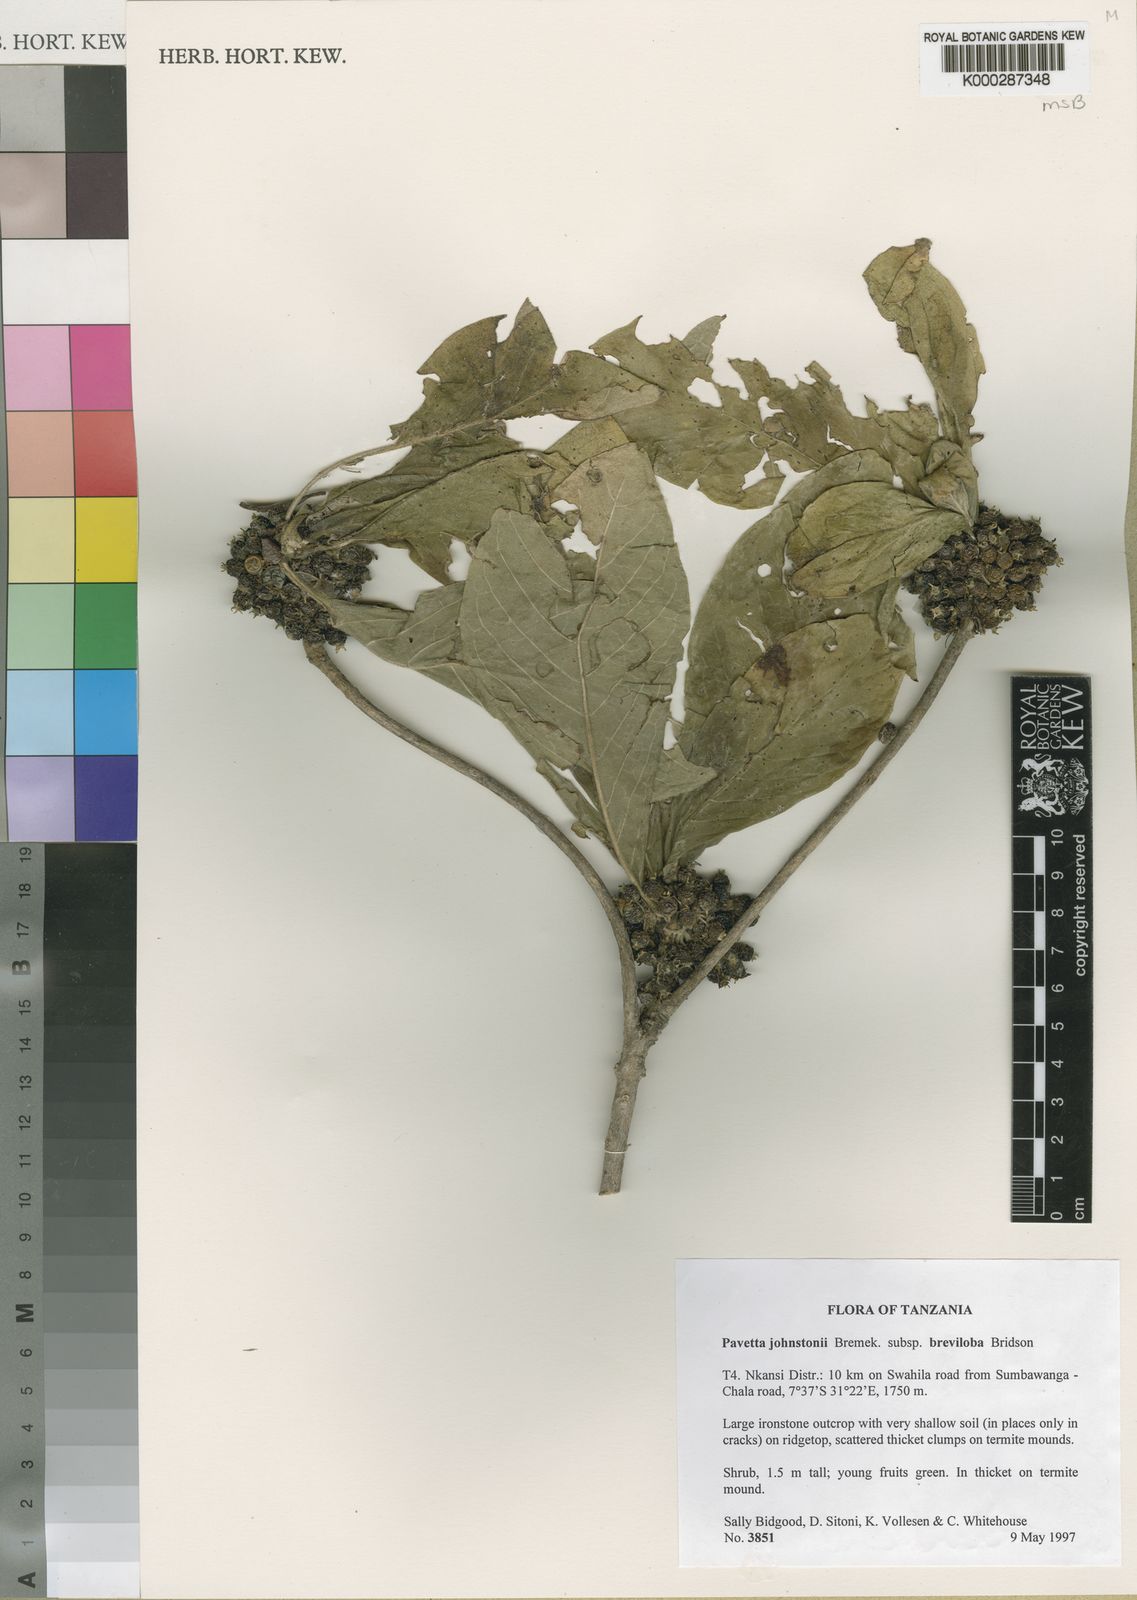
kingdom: Plantae
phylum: Tracheophyta
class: Magnoliopsida
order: Gentianales
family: Rubiaceae
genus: Pavetta
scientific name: Pavetta johnstonii
